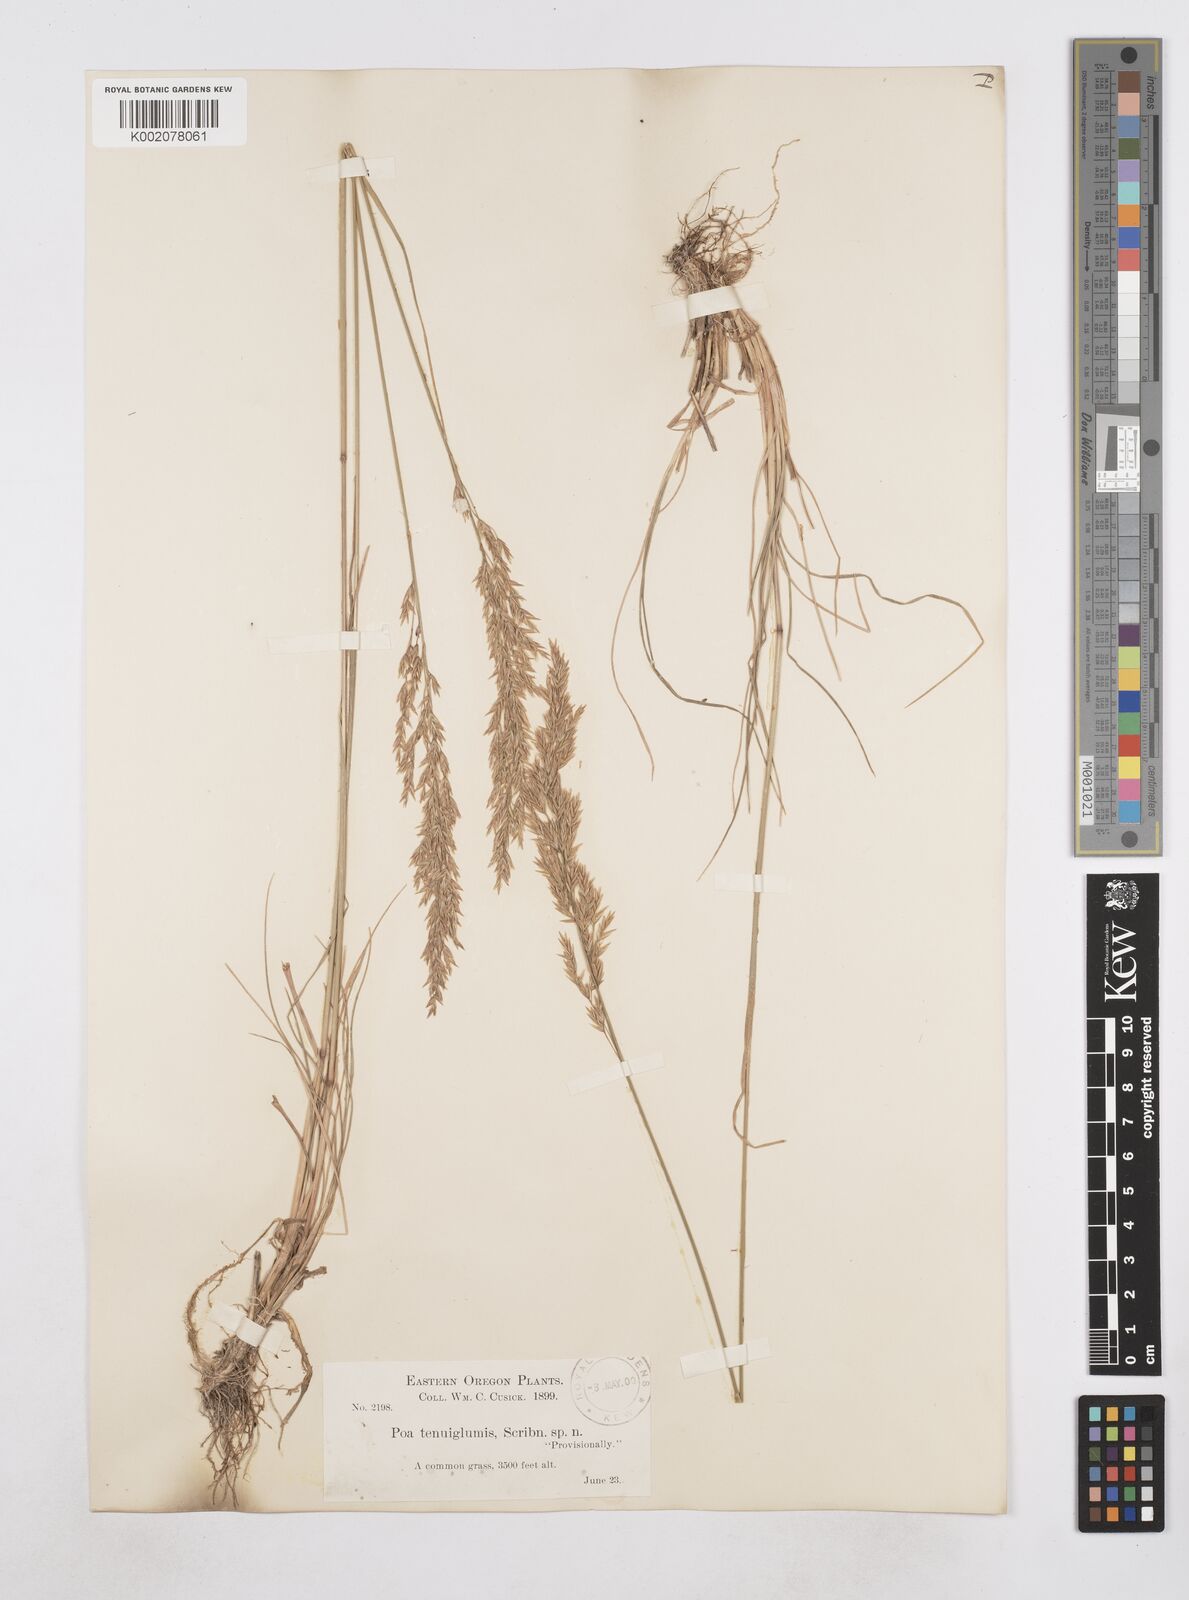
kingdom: Plantae
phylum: Tracheophyta
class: Liliopsida
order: Poales
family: Poaceae
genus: Poa
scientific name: Poa
